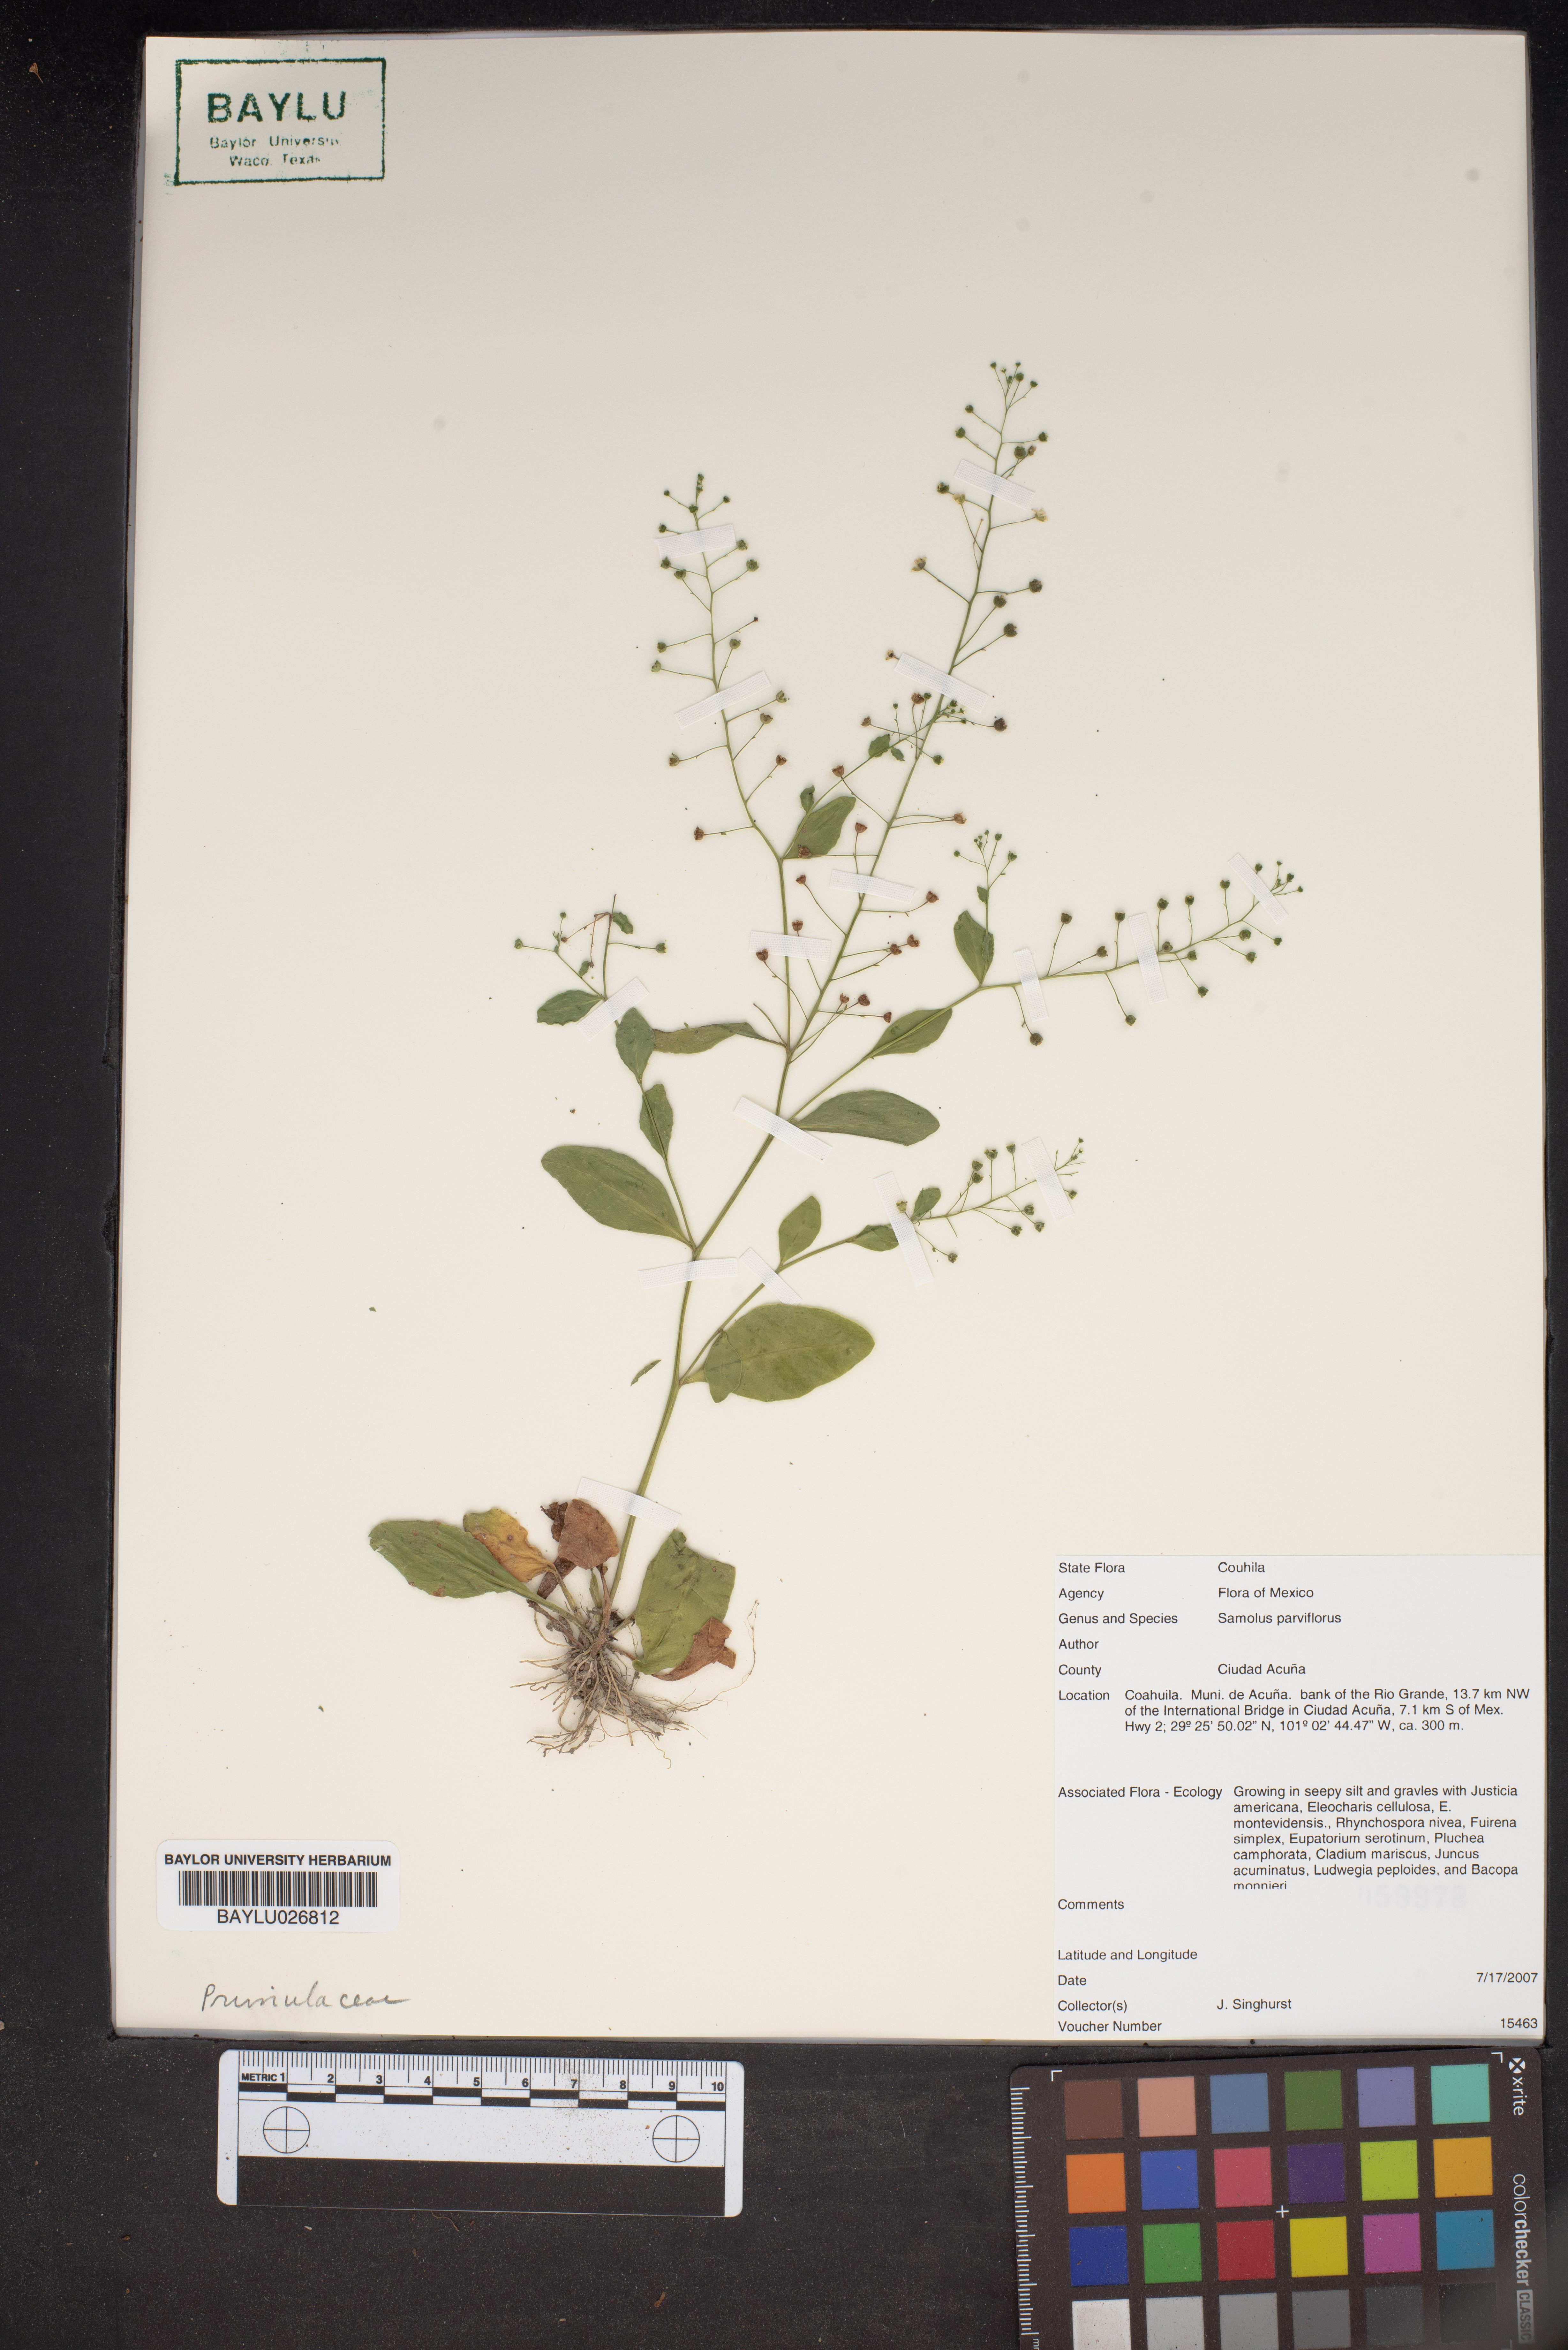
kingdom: Plantae
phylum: Tracheophyta
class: Magnoliopsida
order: Ericales
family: Primulaceae
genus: Samolus
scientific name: Samolus parviflorus
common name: False water pimpernel
